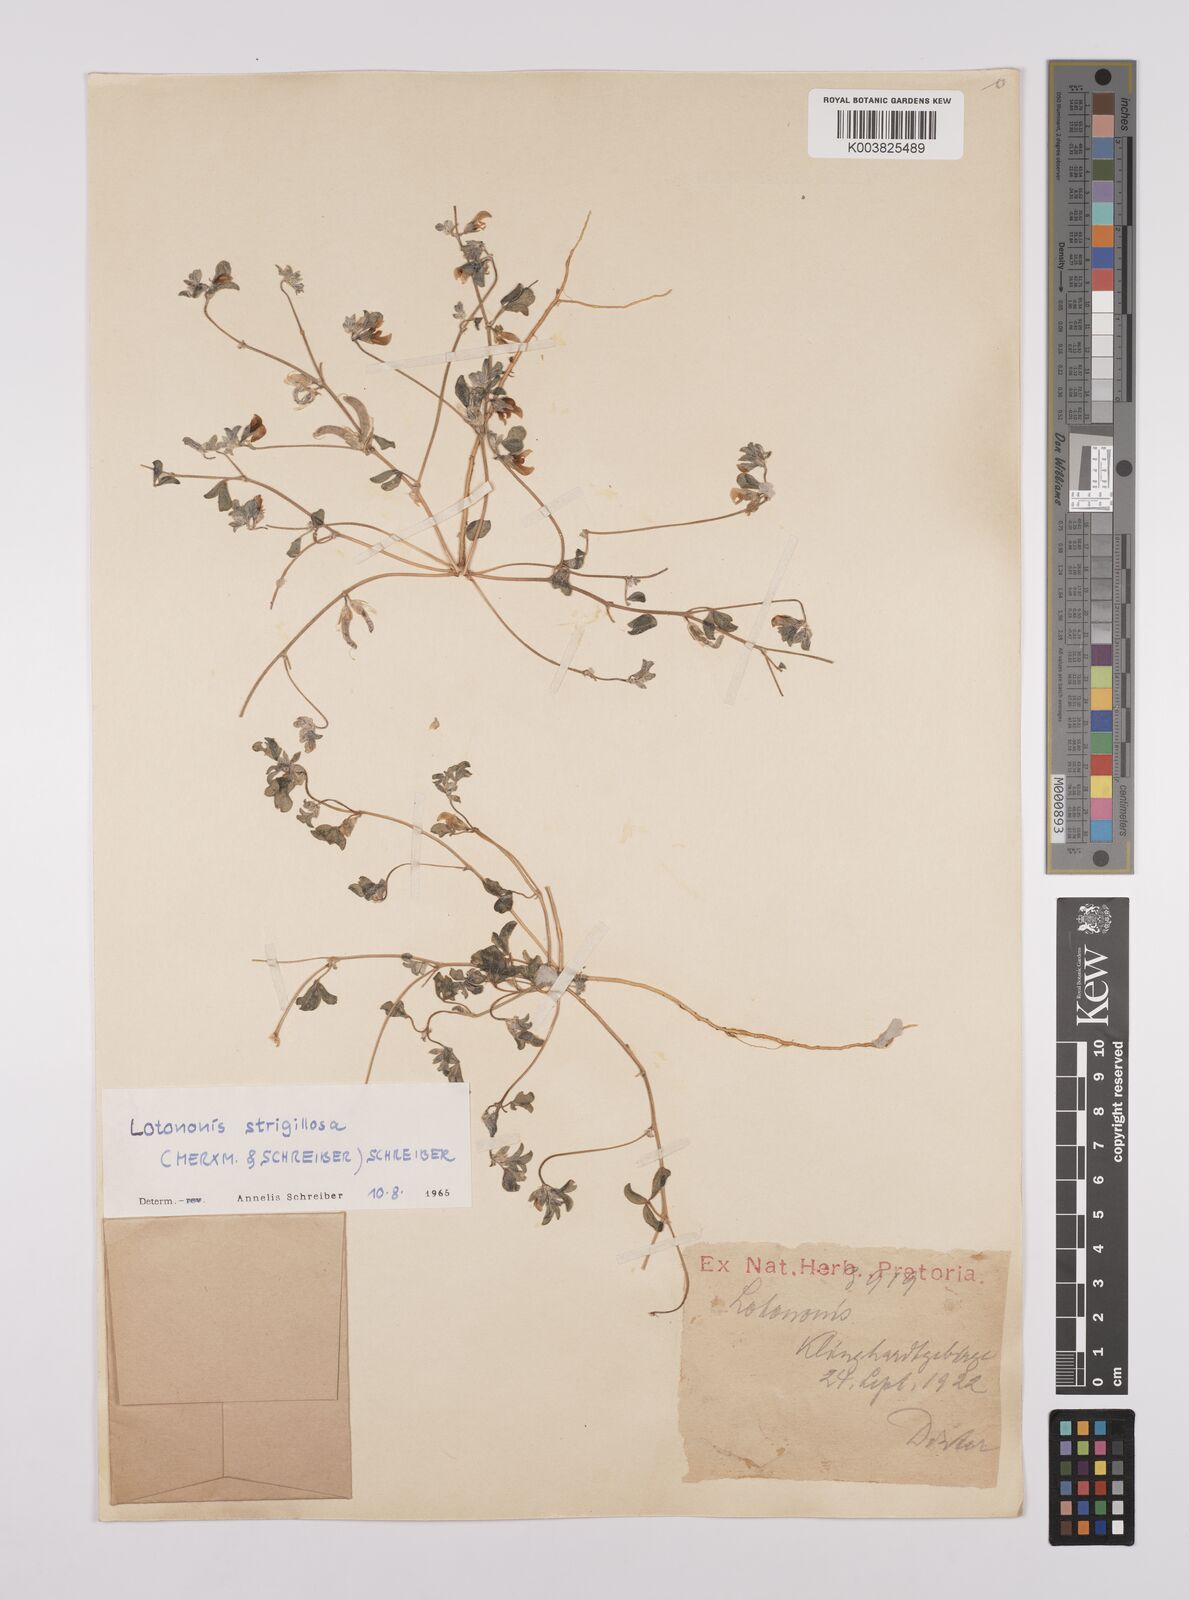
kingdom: Plantae
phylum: Tracheophyta
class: Magnoliopsida
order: Fabales
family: Fabaceae
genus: Lotononis
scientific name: Lotononis strigillosa
